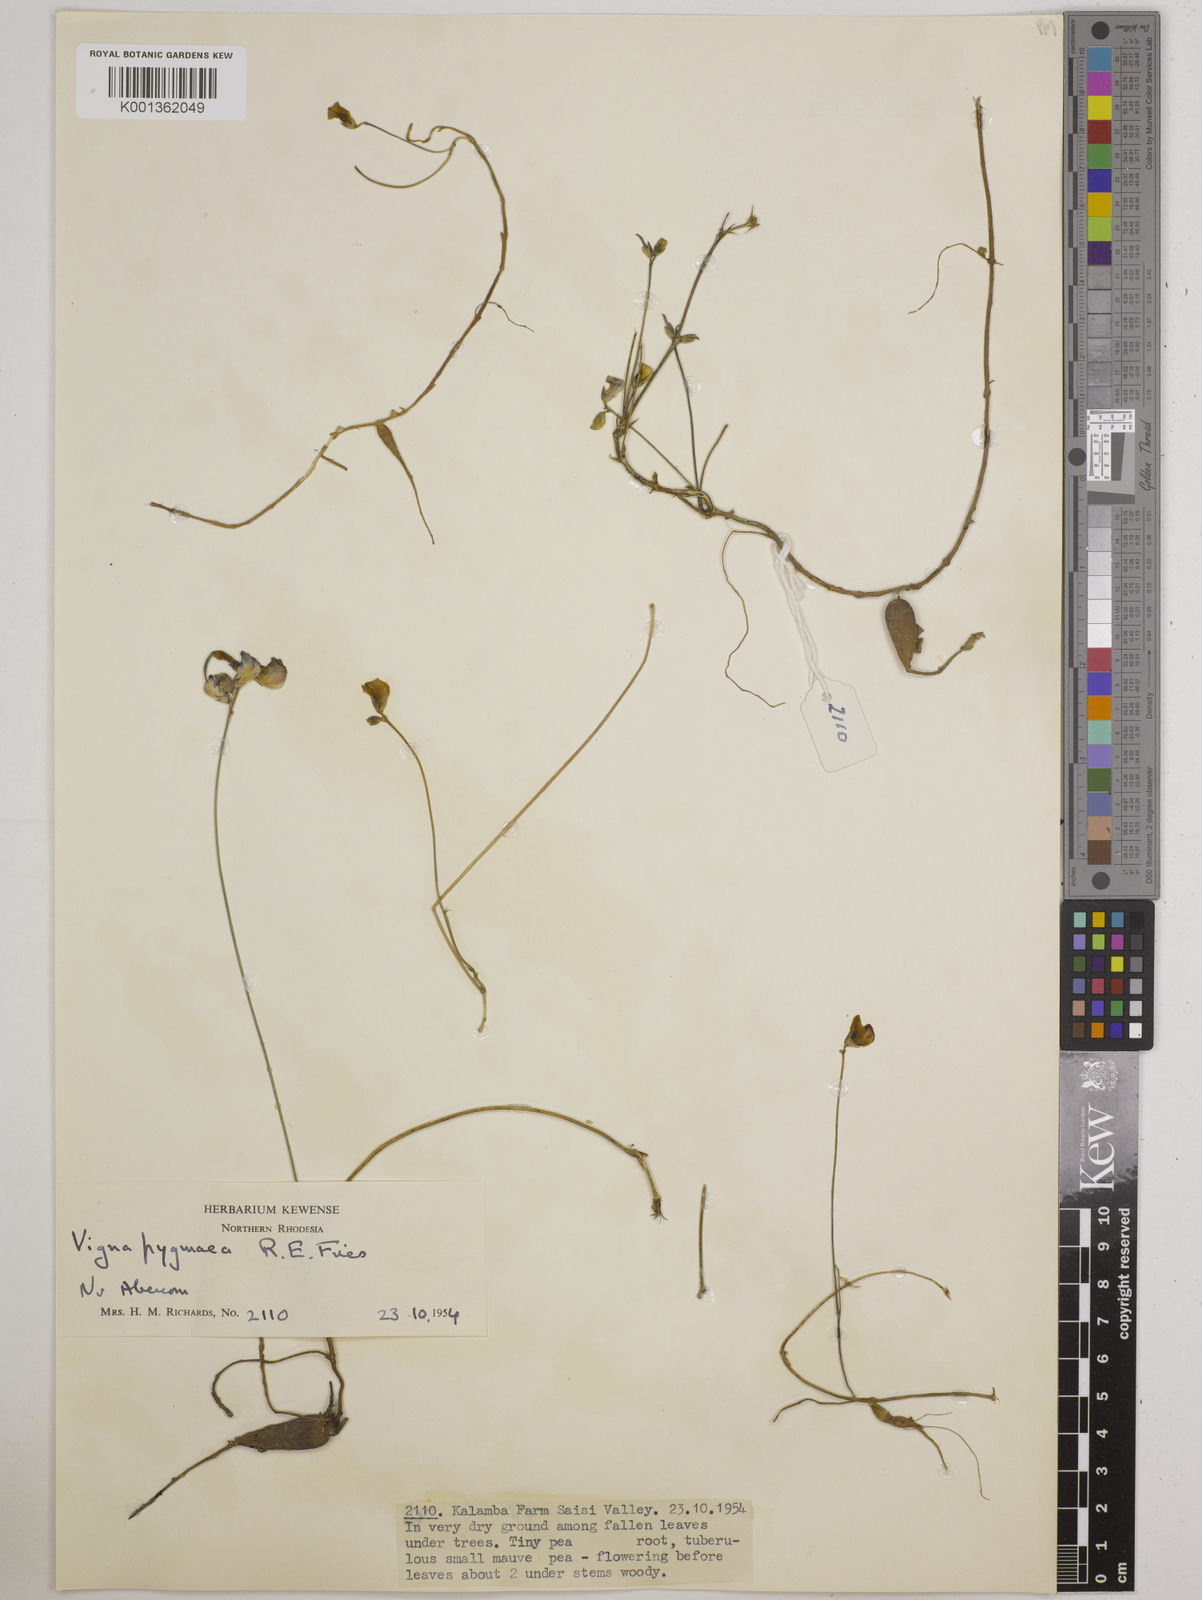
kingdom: Plantae
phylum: Tracheophyta
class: Magnoliopsida
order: Fabales
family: Fabaceae
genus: Vigna
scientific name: Vigna pygmaea
